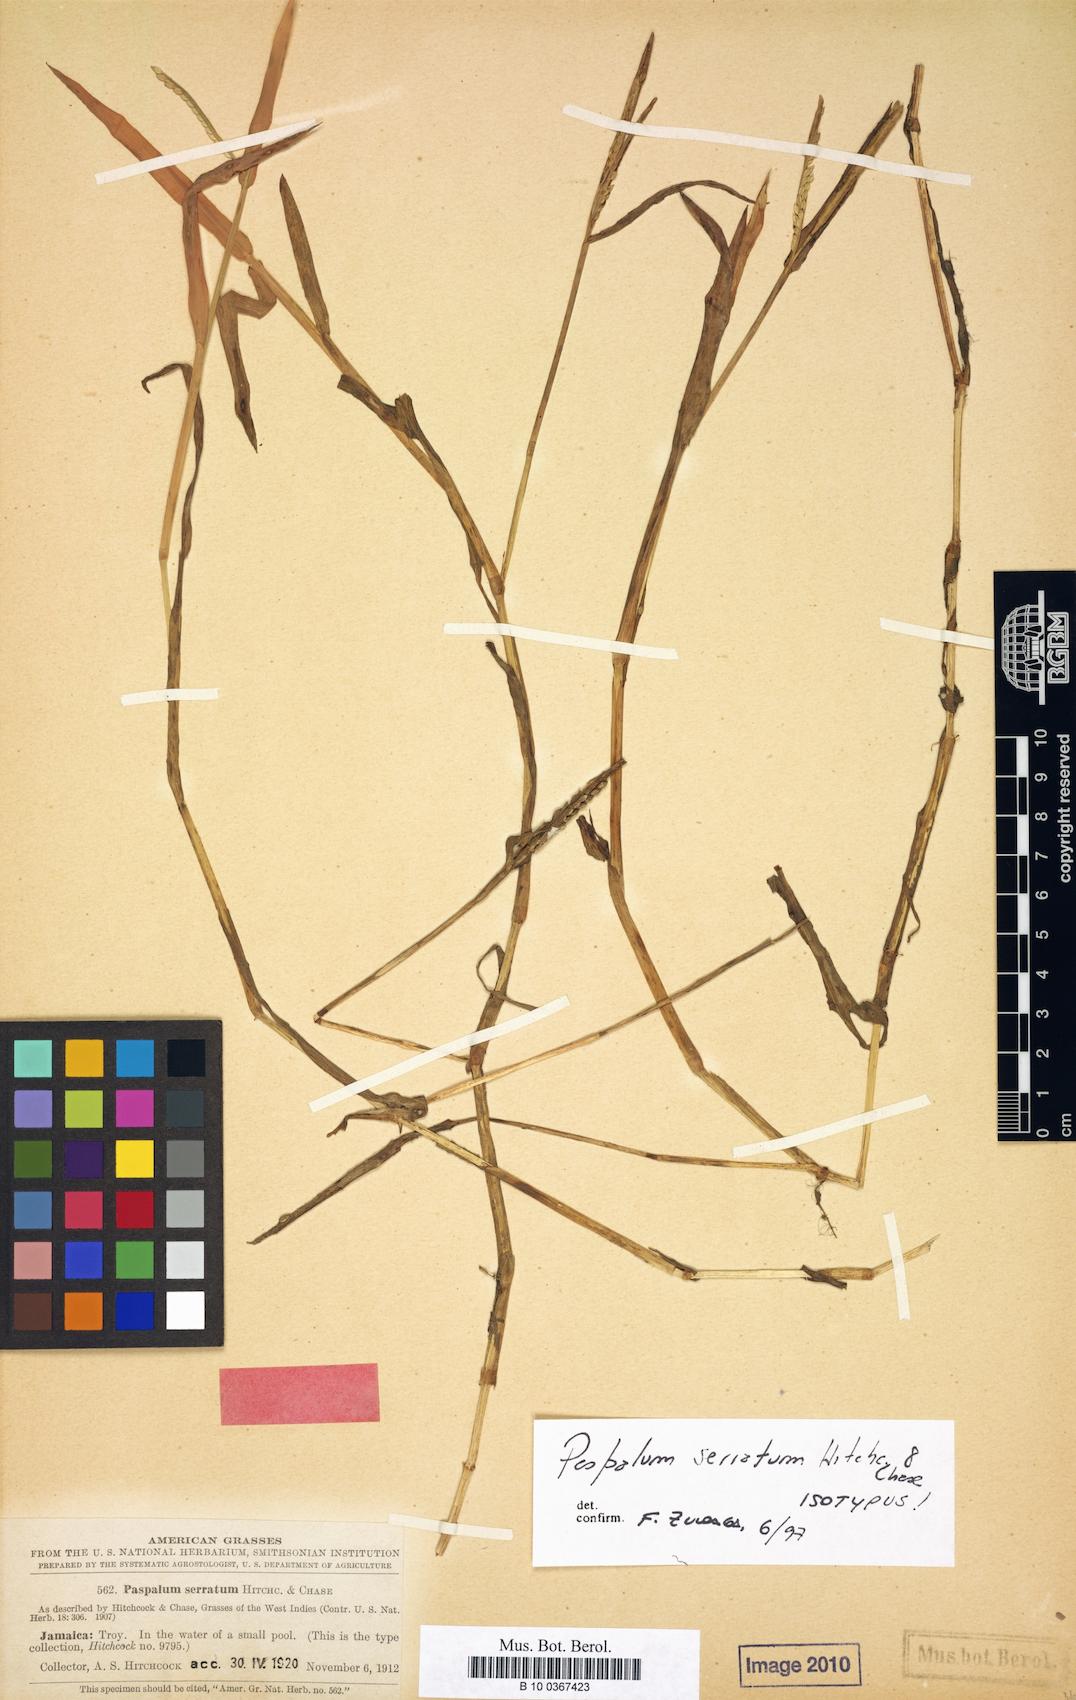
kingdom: Plantae
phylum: Tracheophyta
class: Liliopsida
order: Poales
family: Poaceae
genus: Paspalum
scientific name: Paspalum acuminatum
